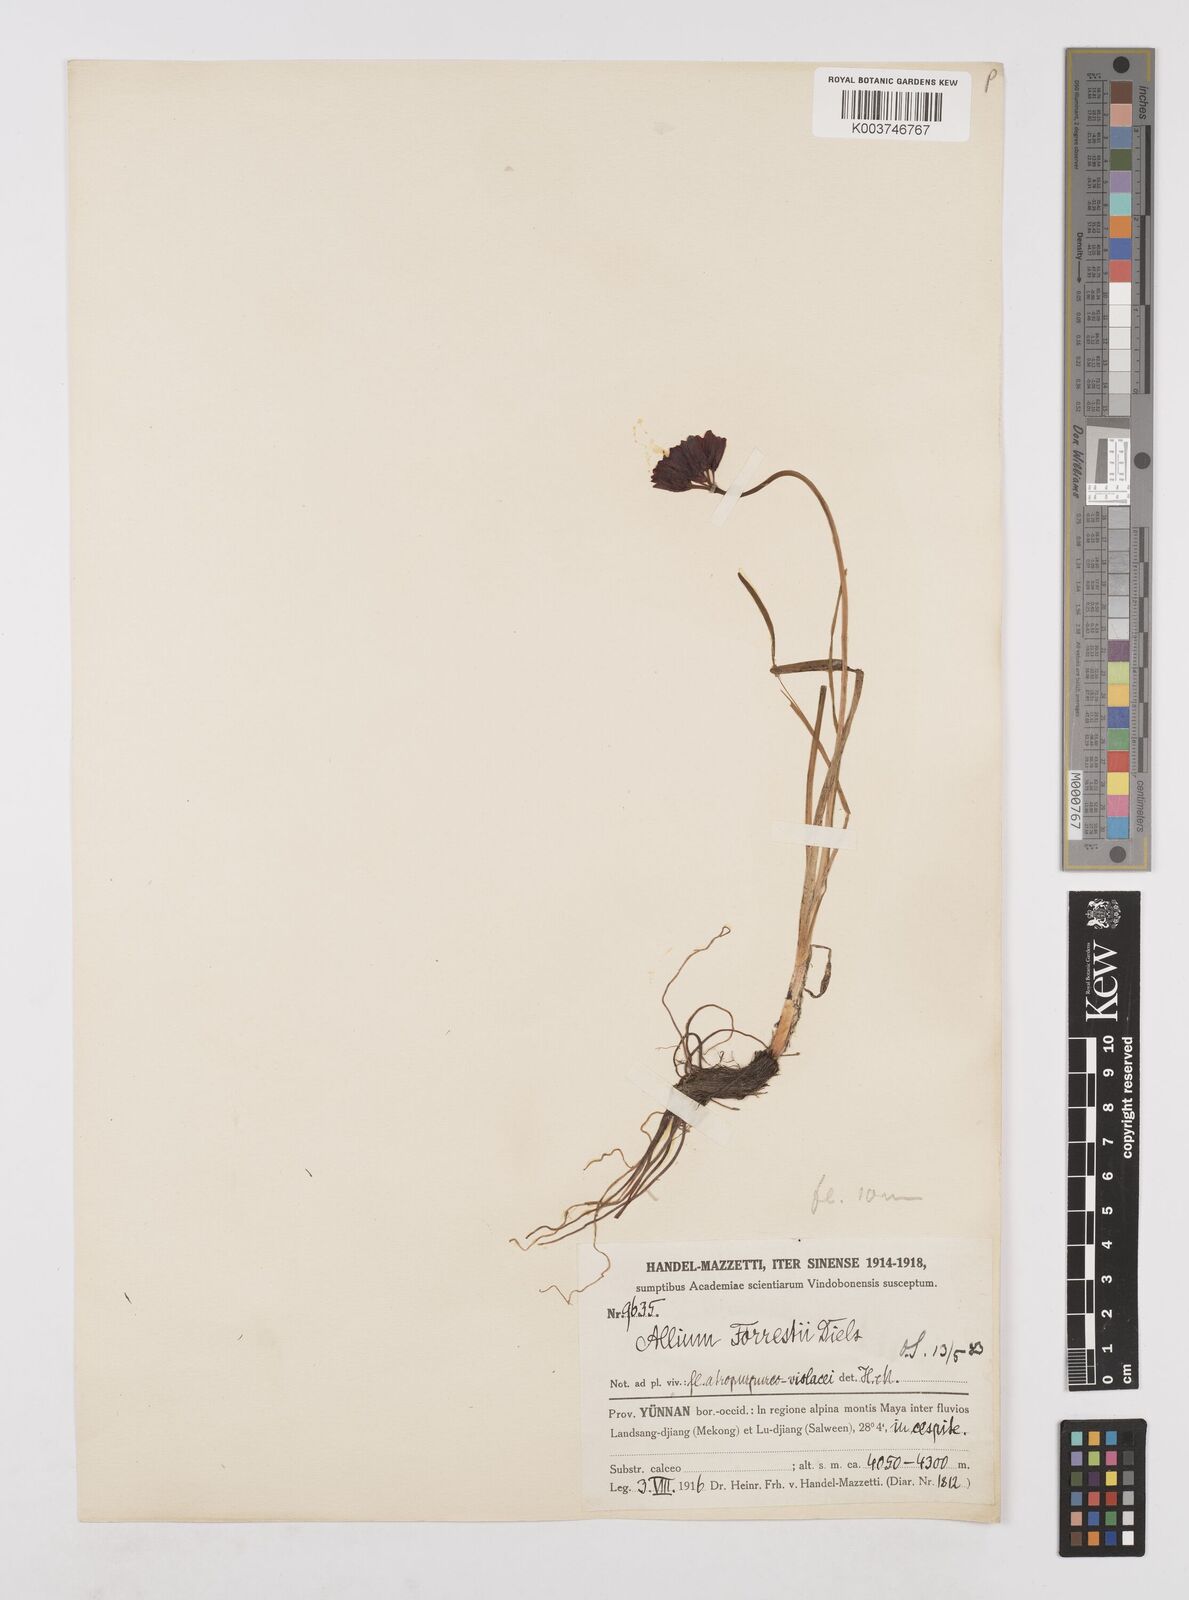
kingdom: Plantae
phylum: Tracheophyta
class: Liliopsida
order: Asparagales
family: Amaryllidaceae
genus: Allium
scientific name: Allium forrestii
